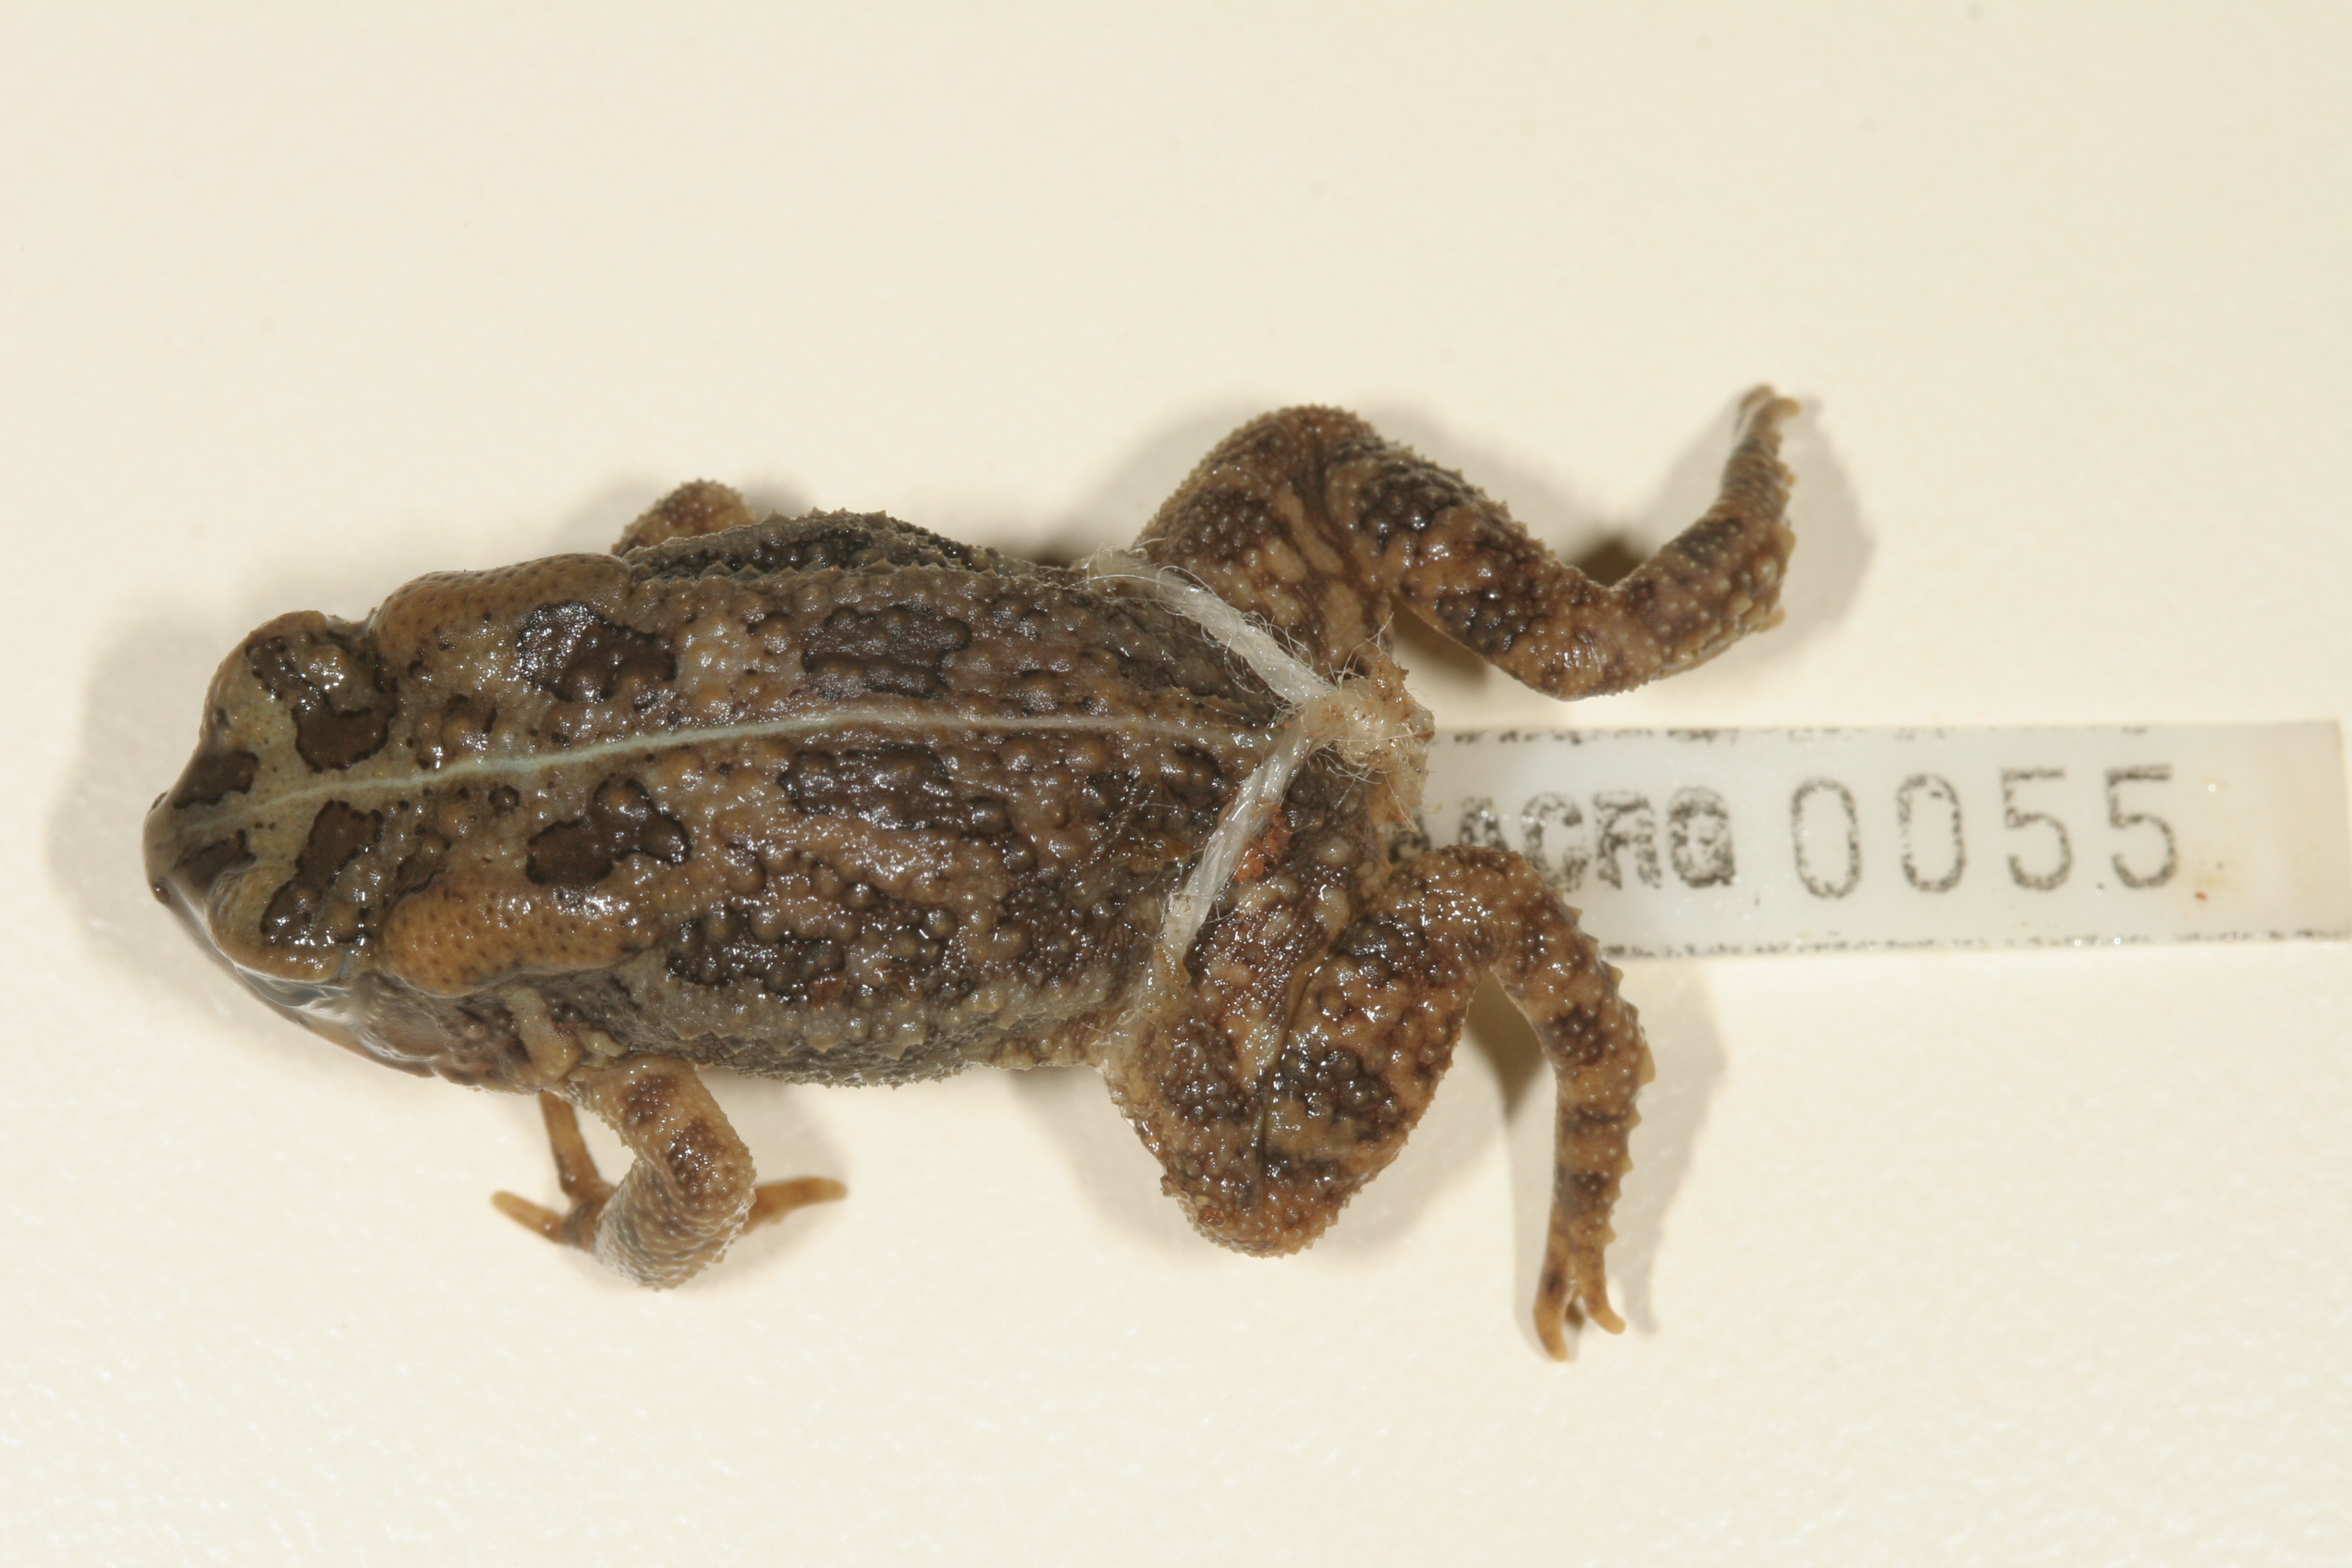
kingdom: Animalia
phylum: Chordata
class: Amphibia
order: Anura
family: Bufonidae
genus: Sclerophrys
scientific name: Sclerophrys gutturalis
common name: African common toad
